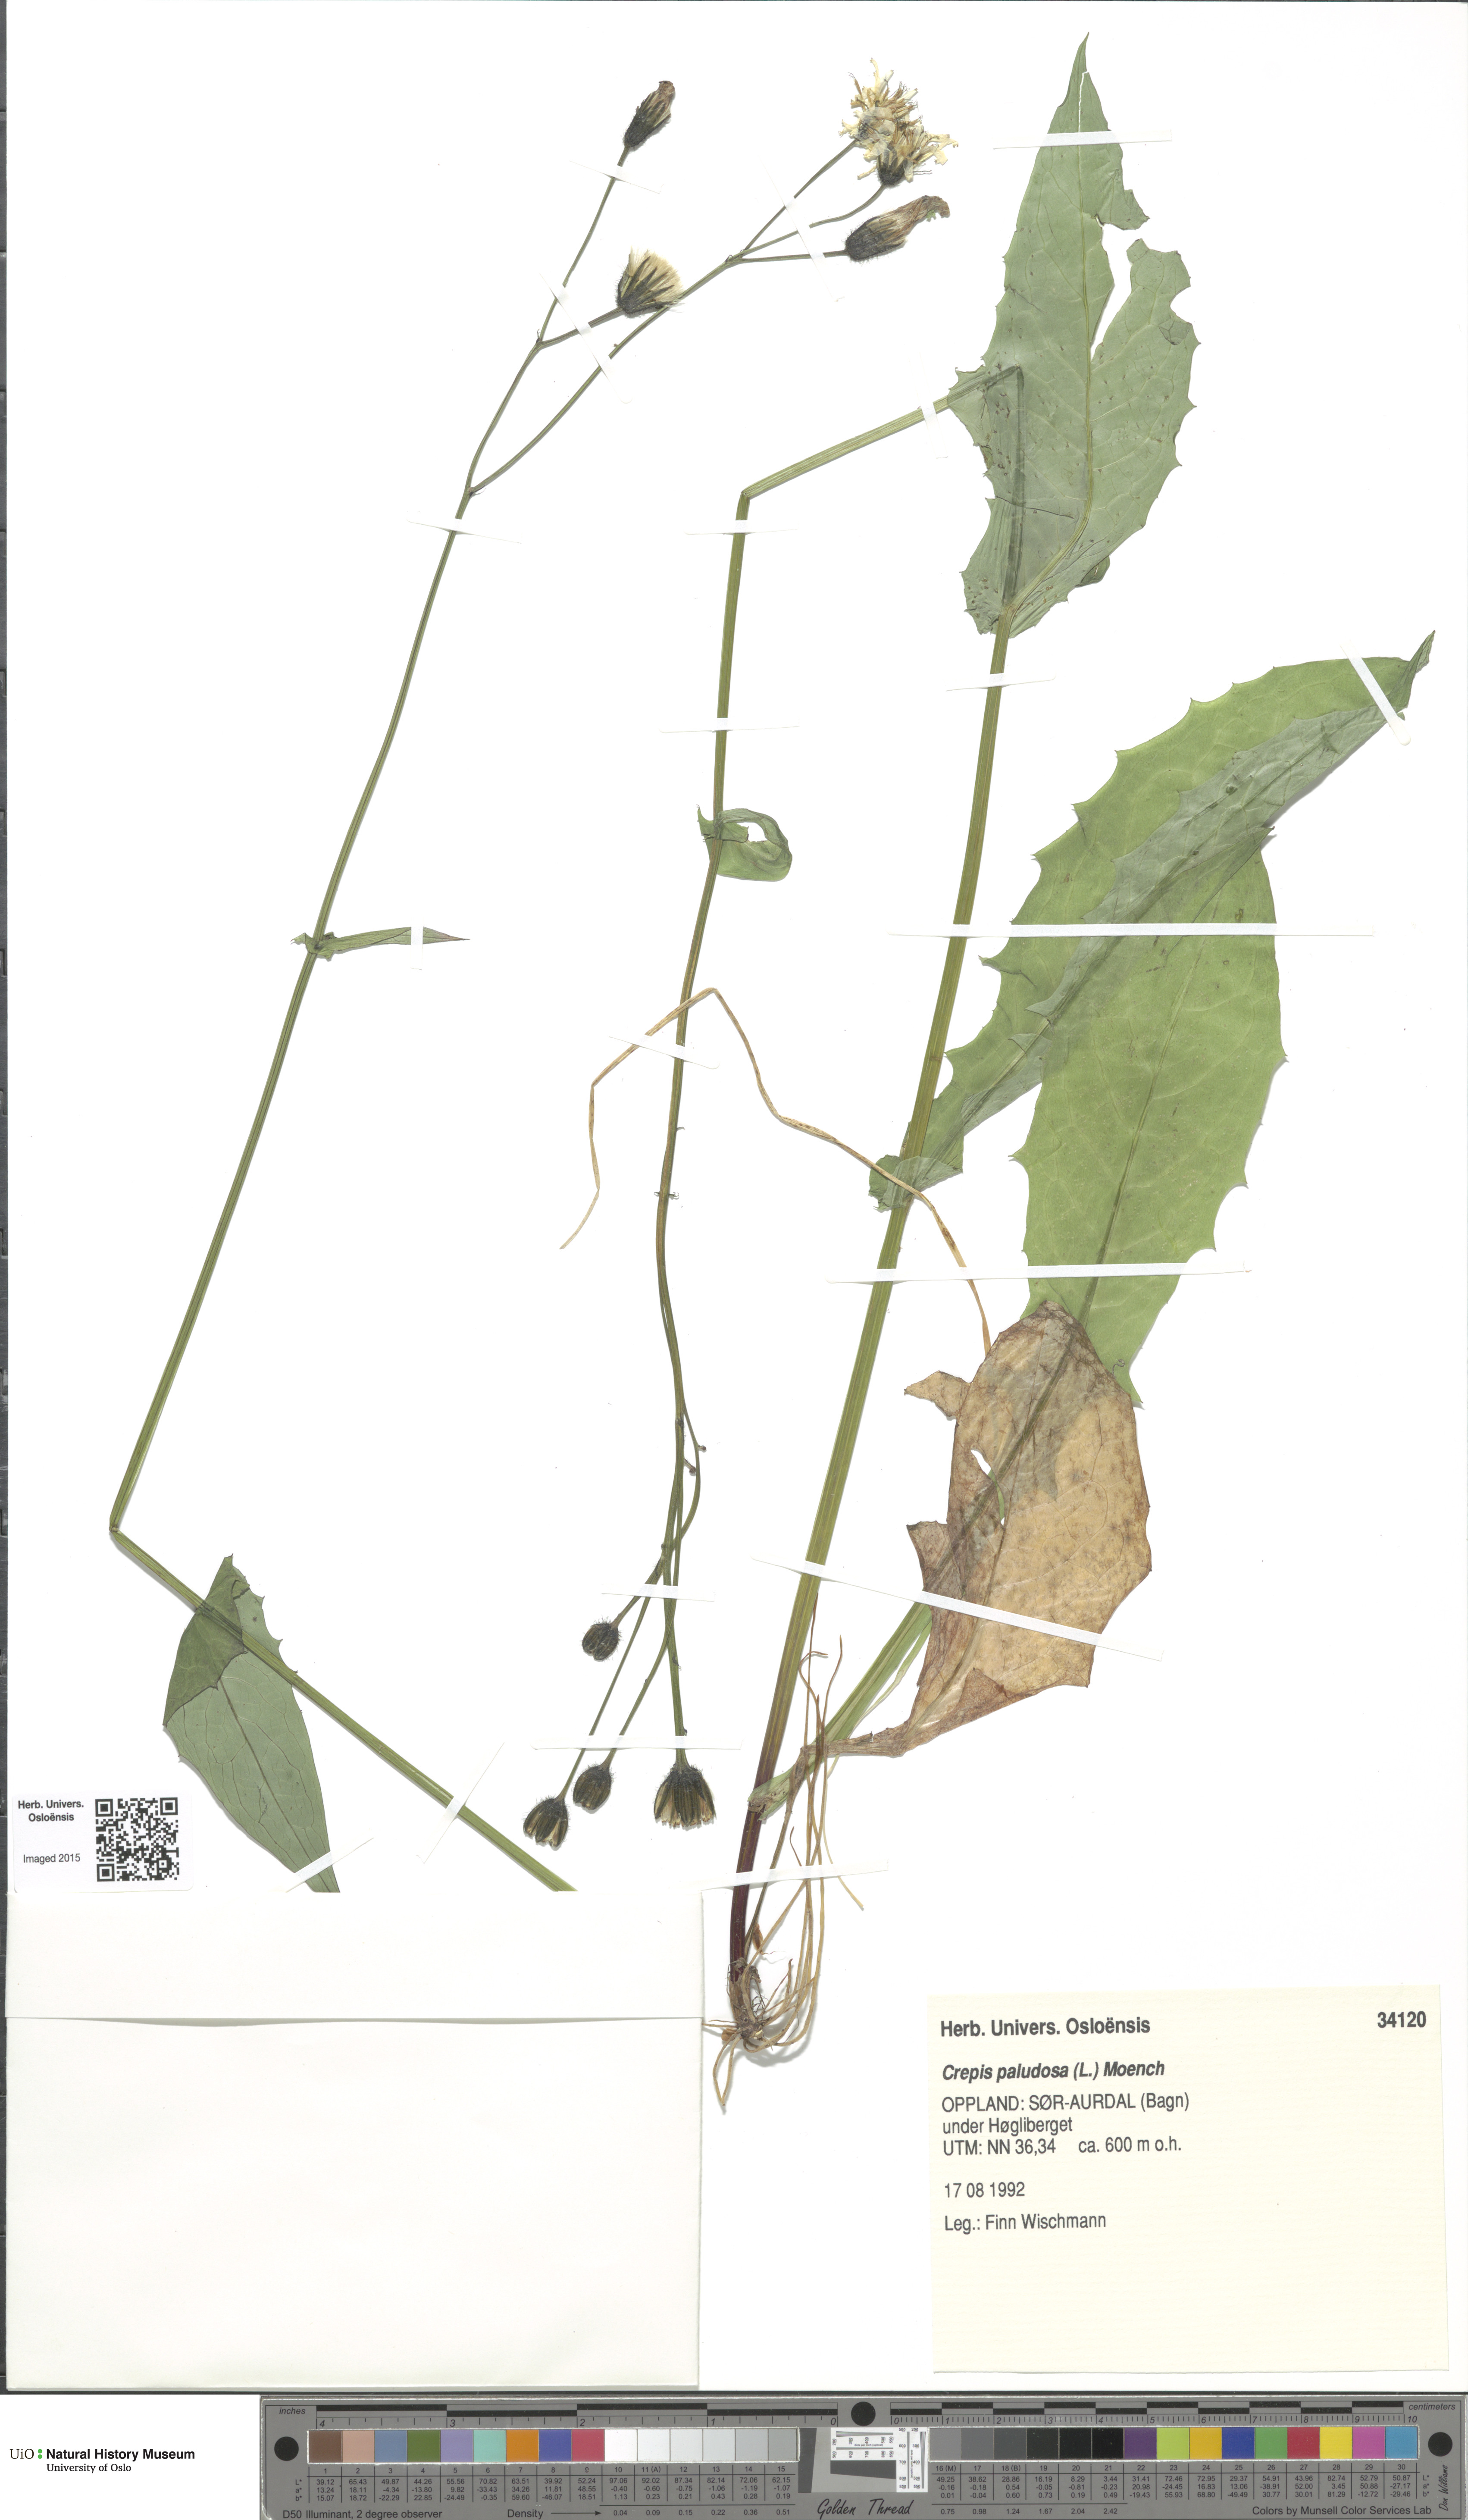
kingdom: Plantae
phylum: Tracheophyta
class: Magnoliopsida
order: Asterales
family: Asteraceae
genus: Crepis
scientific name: Crepis paludosa
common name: Marsh hawk's-beard
